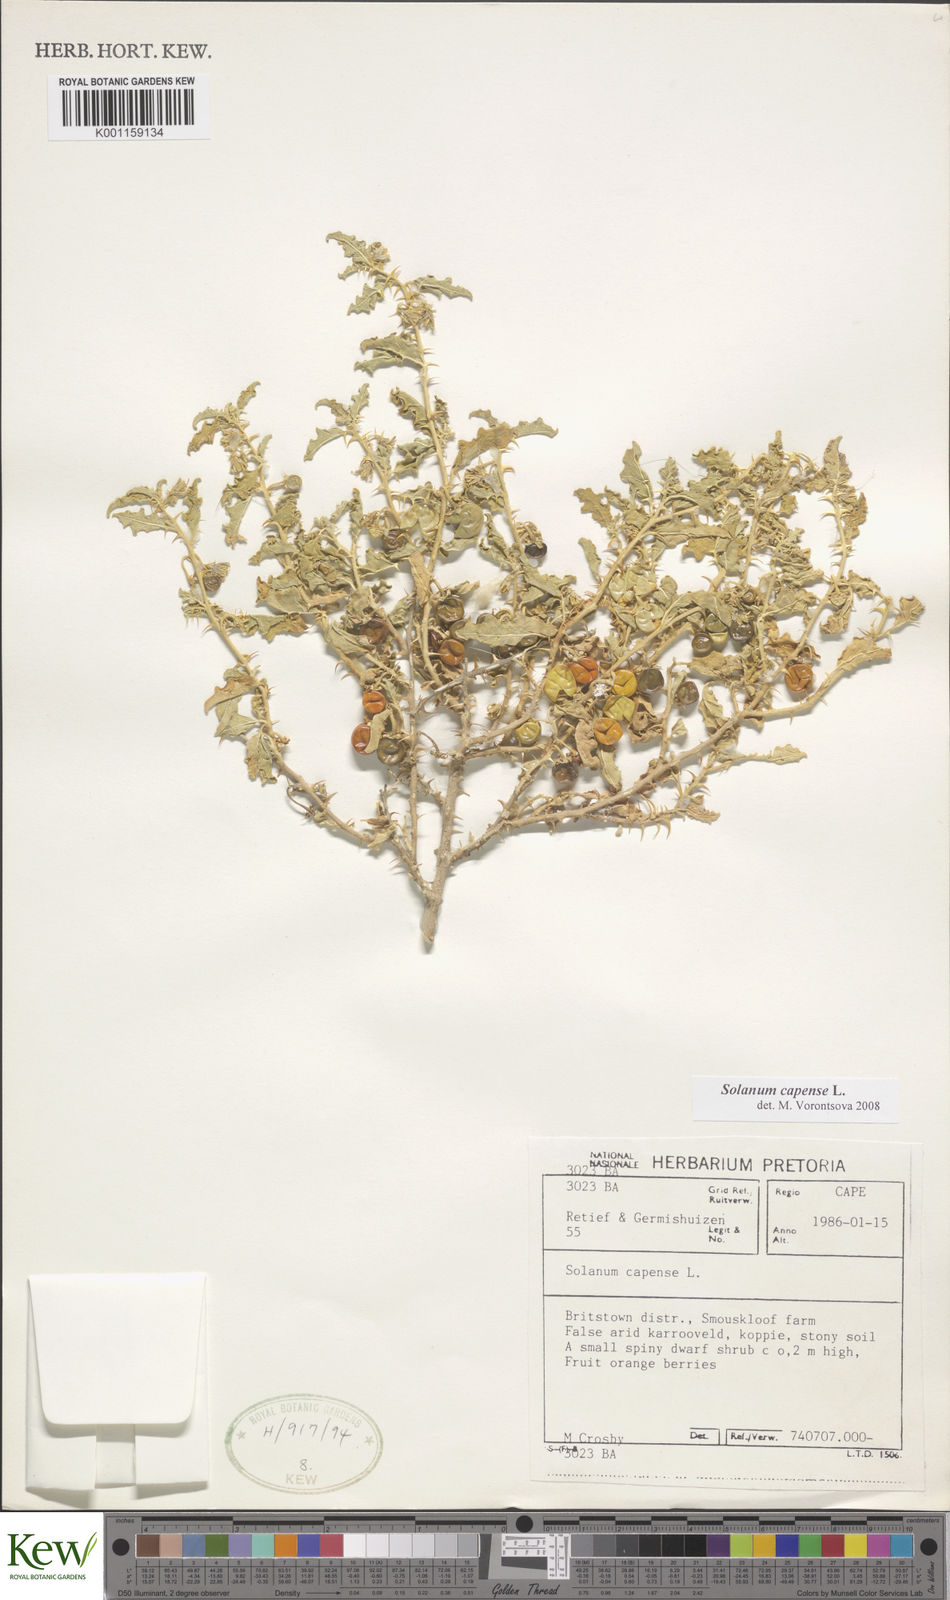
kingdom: Plantae
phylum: Tracheophyta
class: Magnoliopsida
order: Solanales
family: Solanaceae
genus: Solanum
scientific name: Solanum capense
